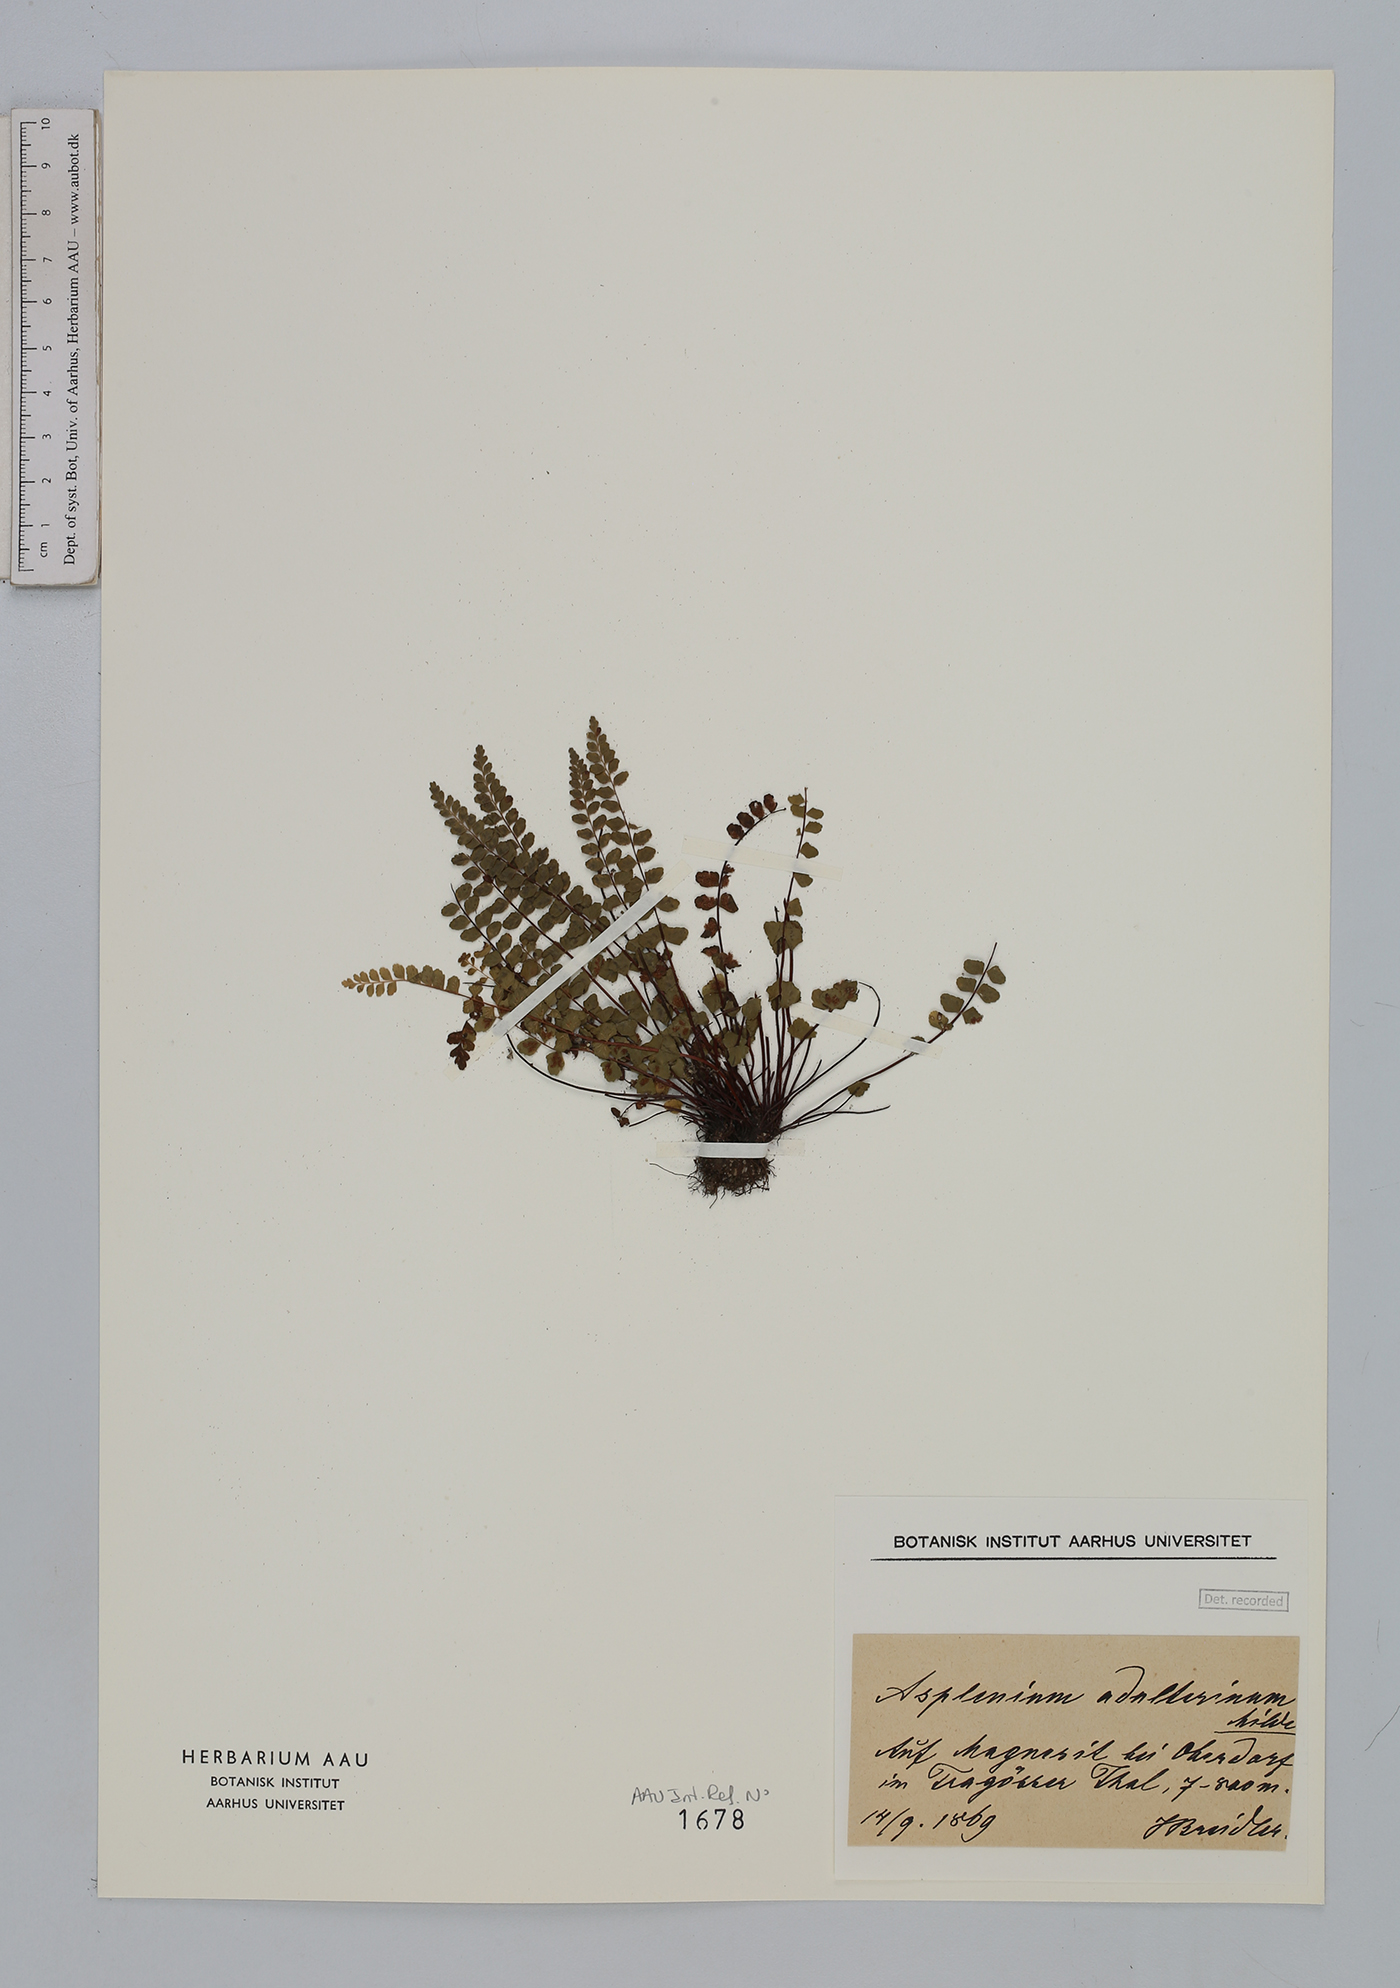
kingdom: Plantae
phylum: Tracheophyta
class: Polypodiopsida
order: Polypodiales
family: Aspleniaceae
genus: Asplenium
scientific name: Asplenium adulterinum
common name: Adulterated spleenwort
